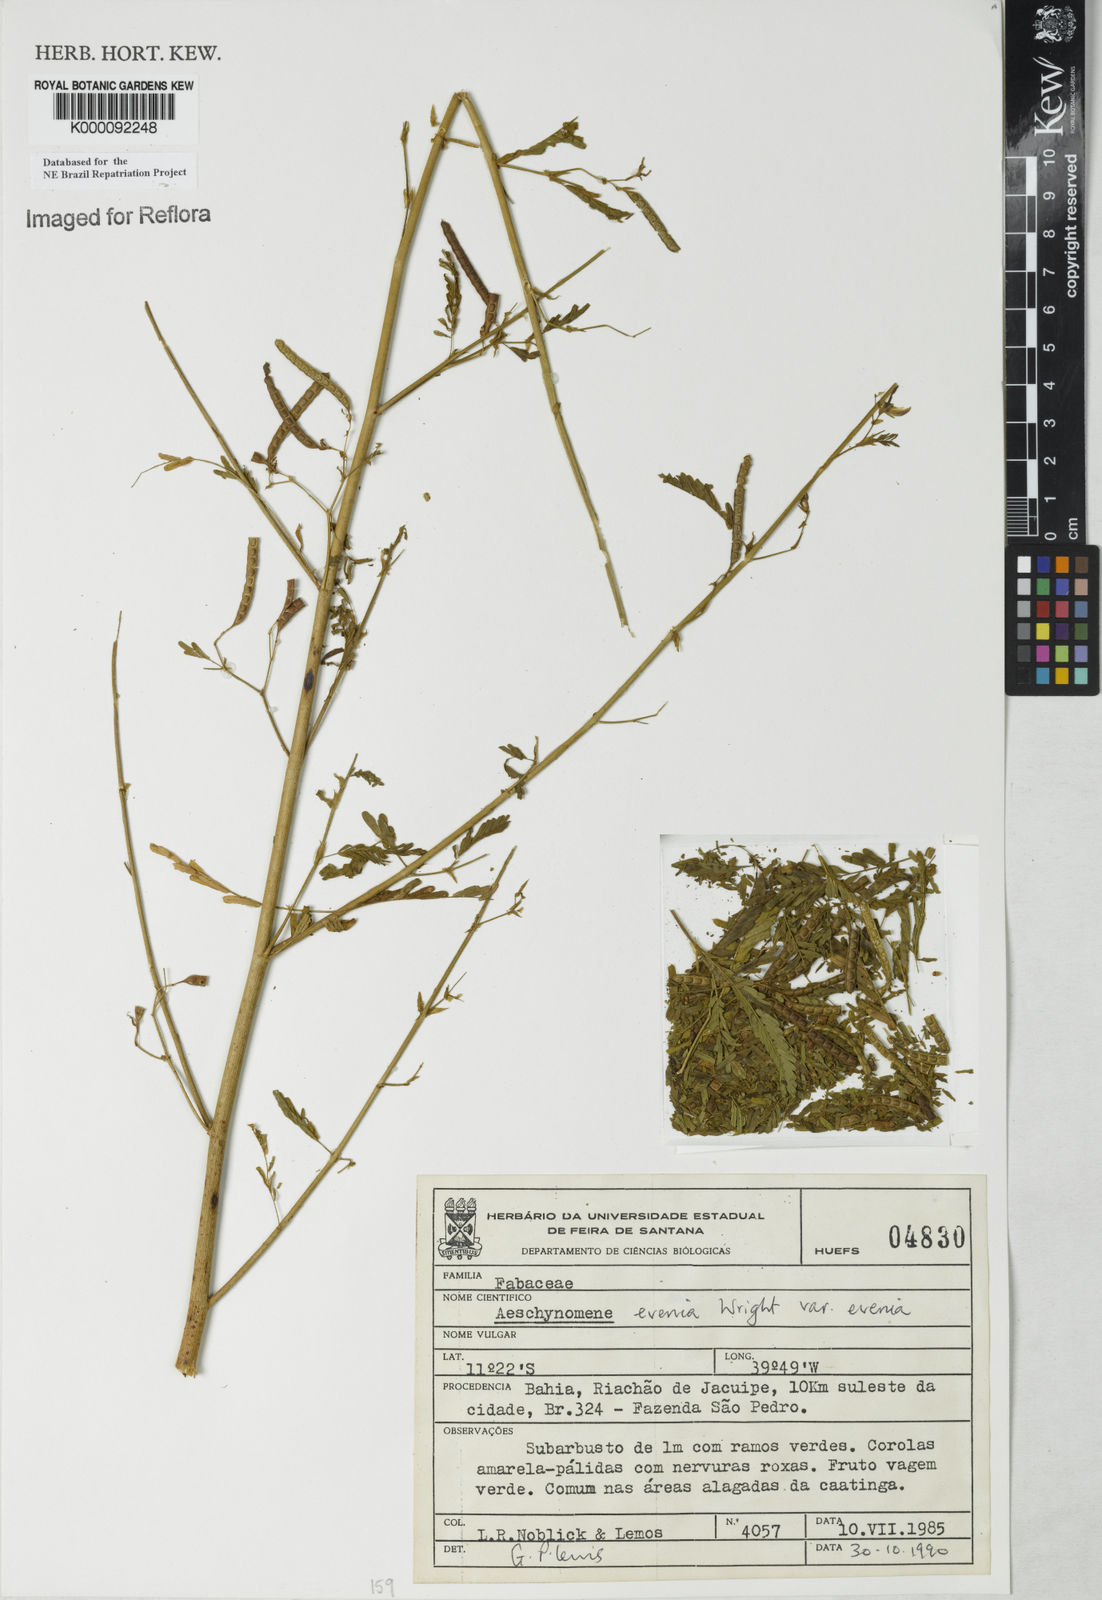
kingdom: Plantae
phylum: Tracheophyta
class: Magnoliopsida
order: Fabales
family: Fabaceae
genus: Aeschynomene
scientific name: Aeschynomene evenia
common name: Shrubby jointvetch
